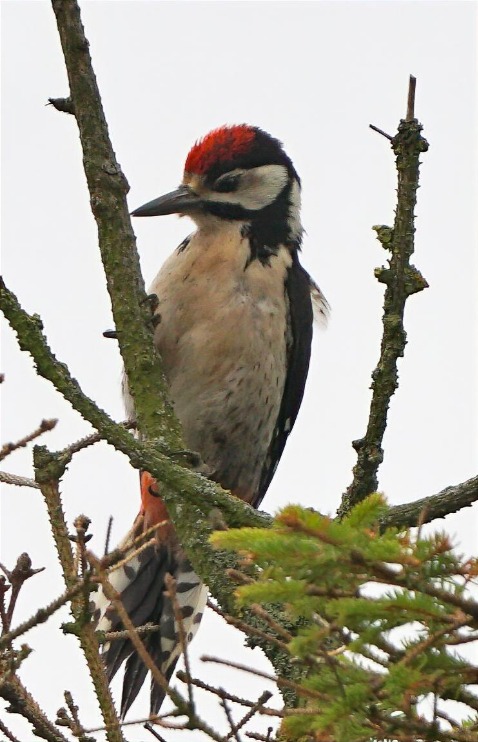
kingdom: Animalia
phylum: Chordata
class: Aves
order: Piciformes
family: Picidae
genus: Dendrocopos
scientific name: Dendrocopos major
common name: Stor flagspætte
